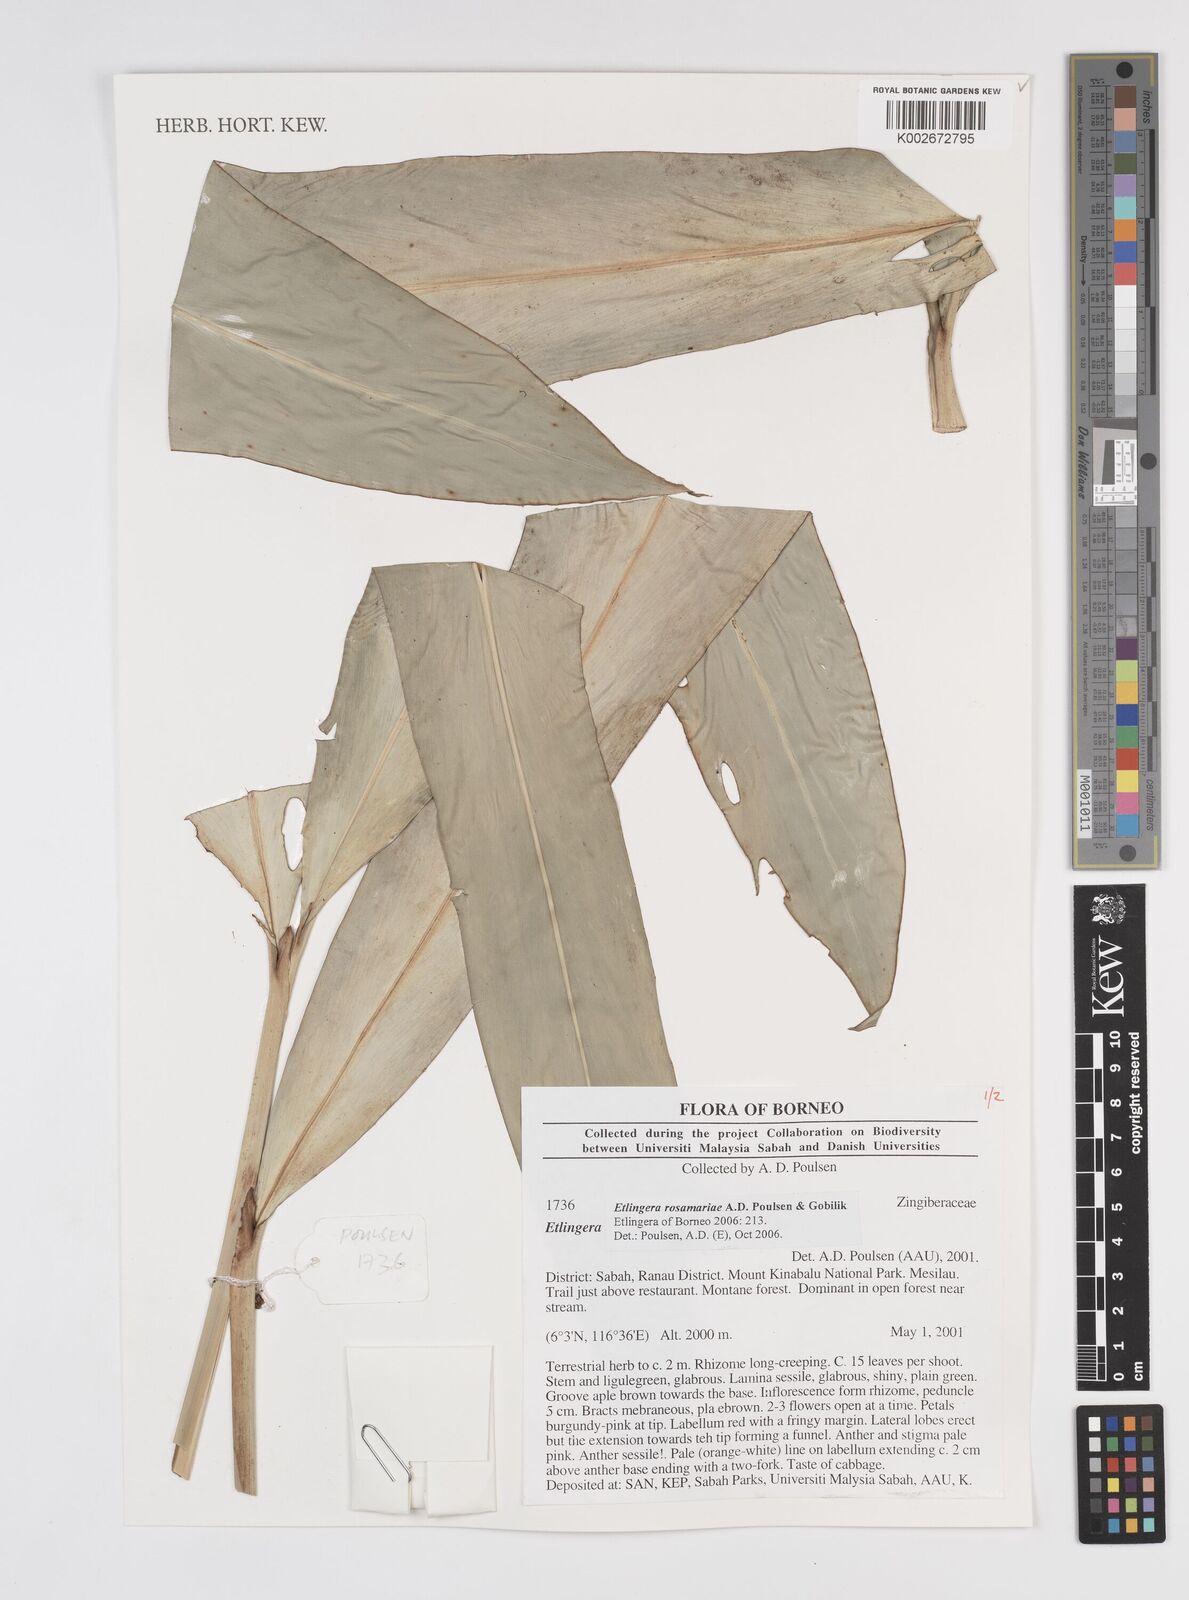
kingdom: Plantae
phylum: Tracheophyta
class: Liliopsida
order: Zingiberales
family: Zingiberaceae
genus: Etlingera
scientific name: Etlingera rosamariae
